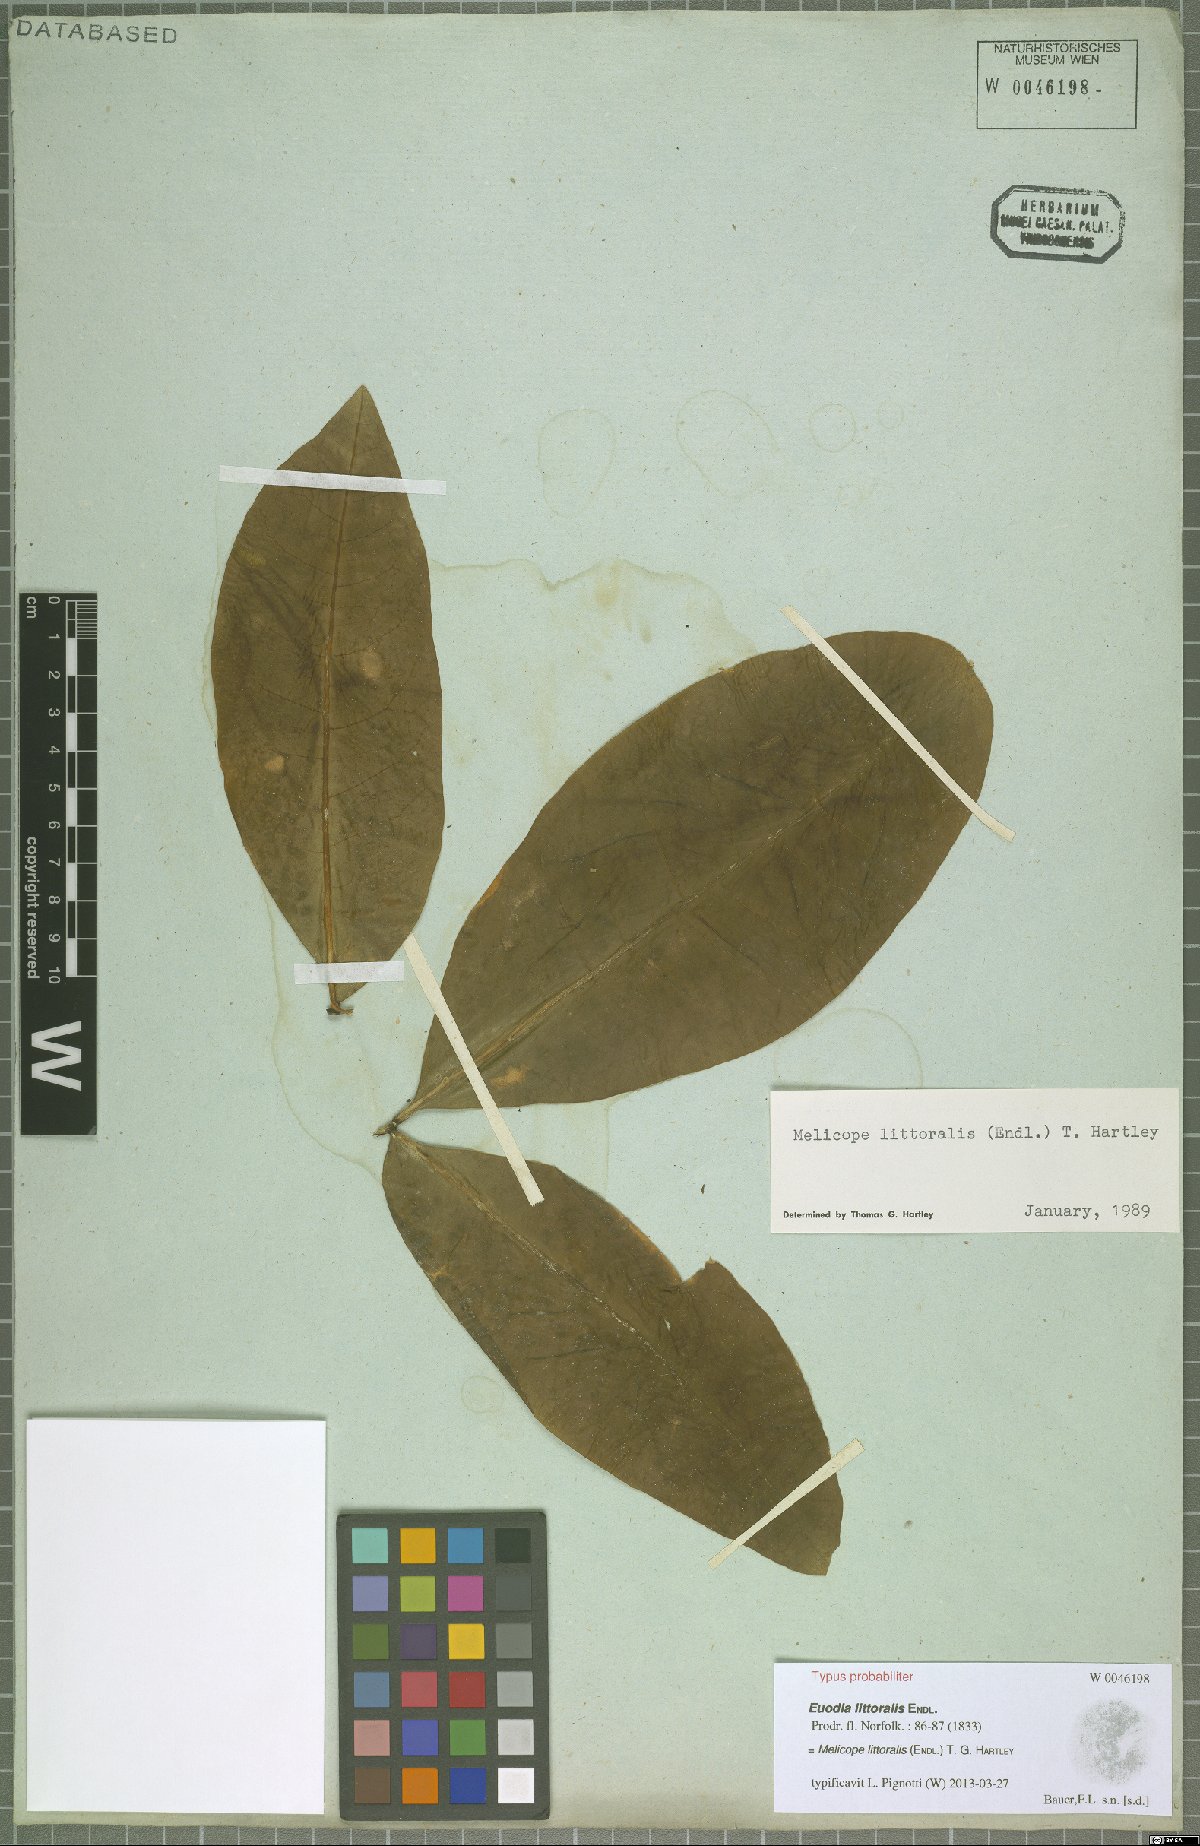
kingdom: Plantae
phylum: Tracheophyta
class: Magnoliopsida
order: Sapindales
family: Rutaceae
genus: Melicope
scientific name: Melicope littoralis
